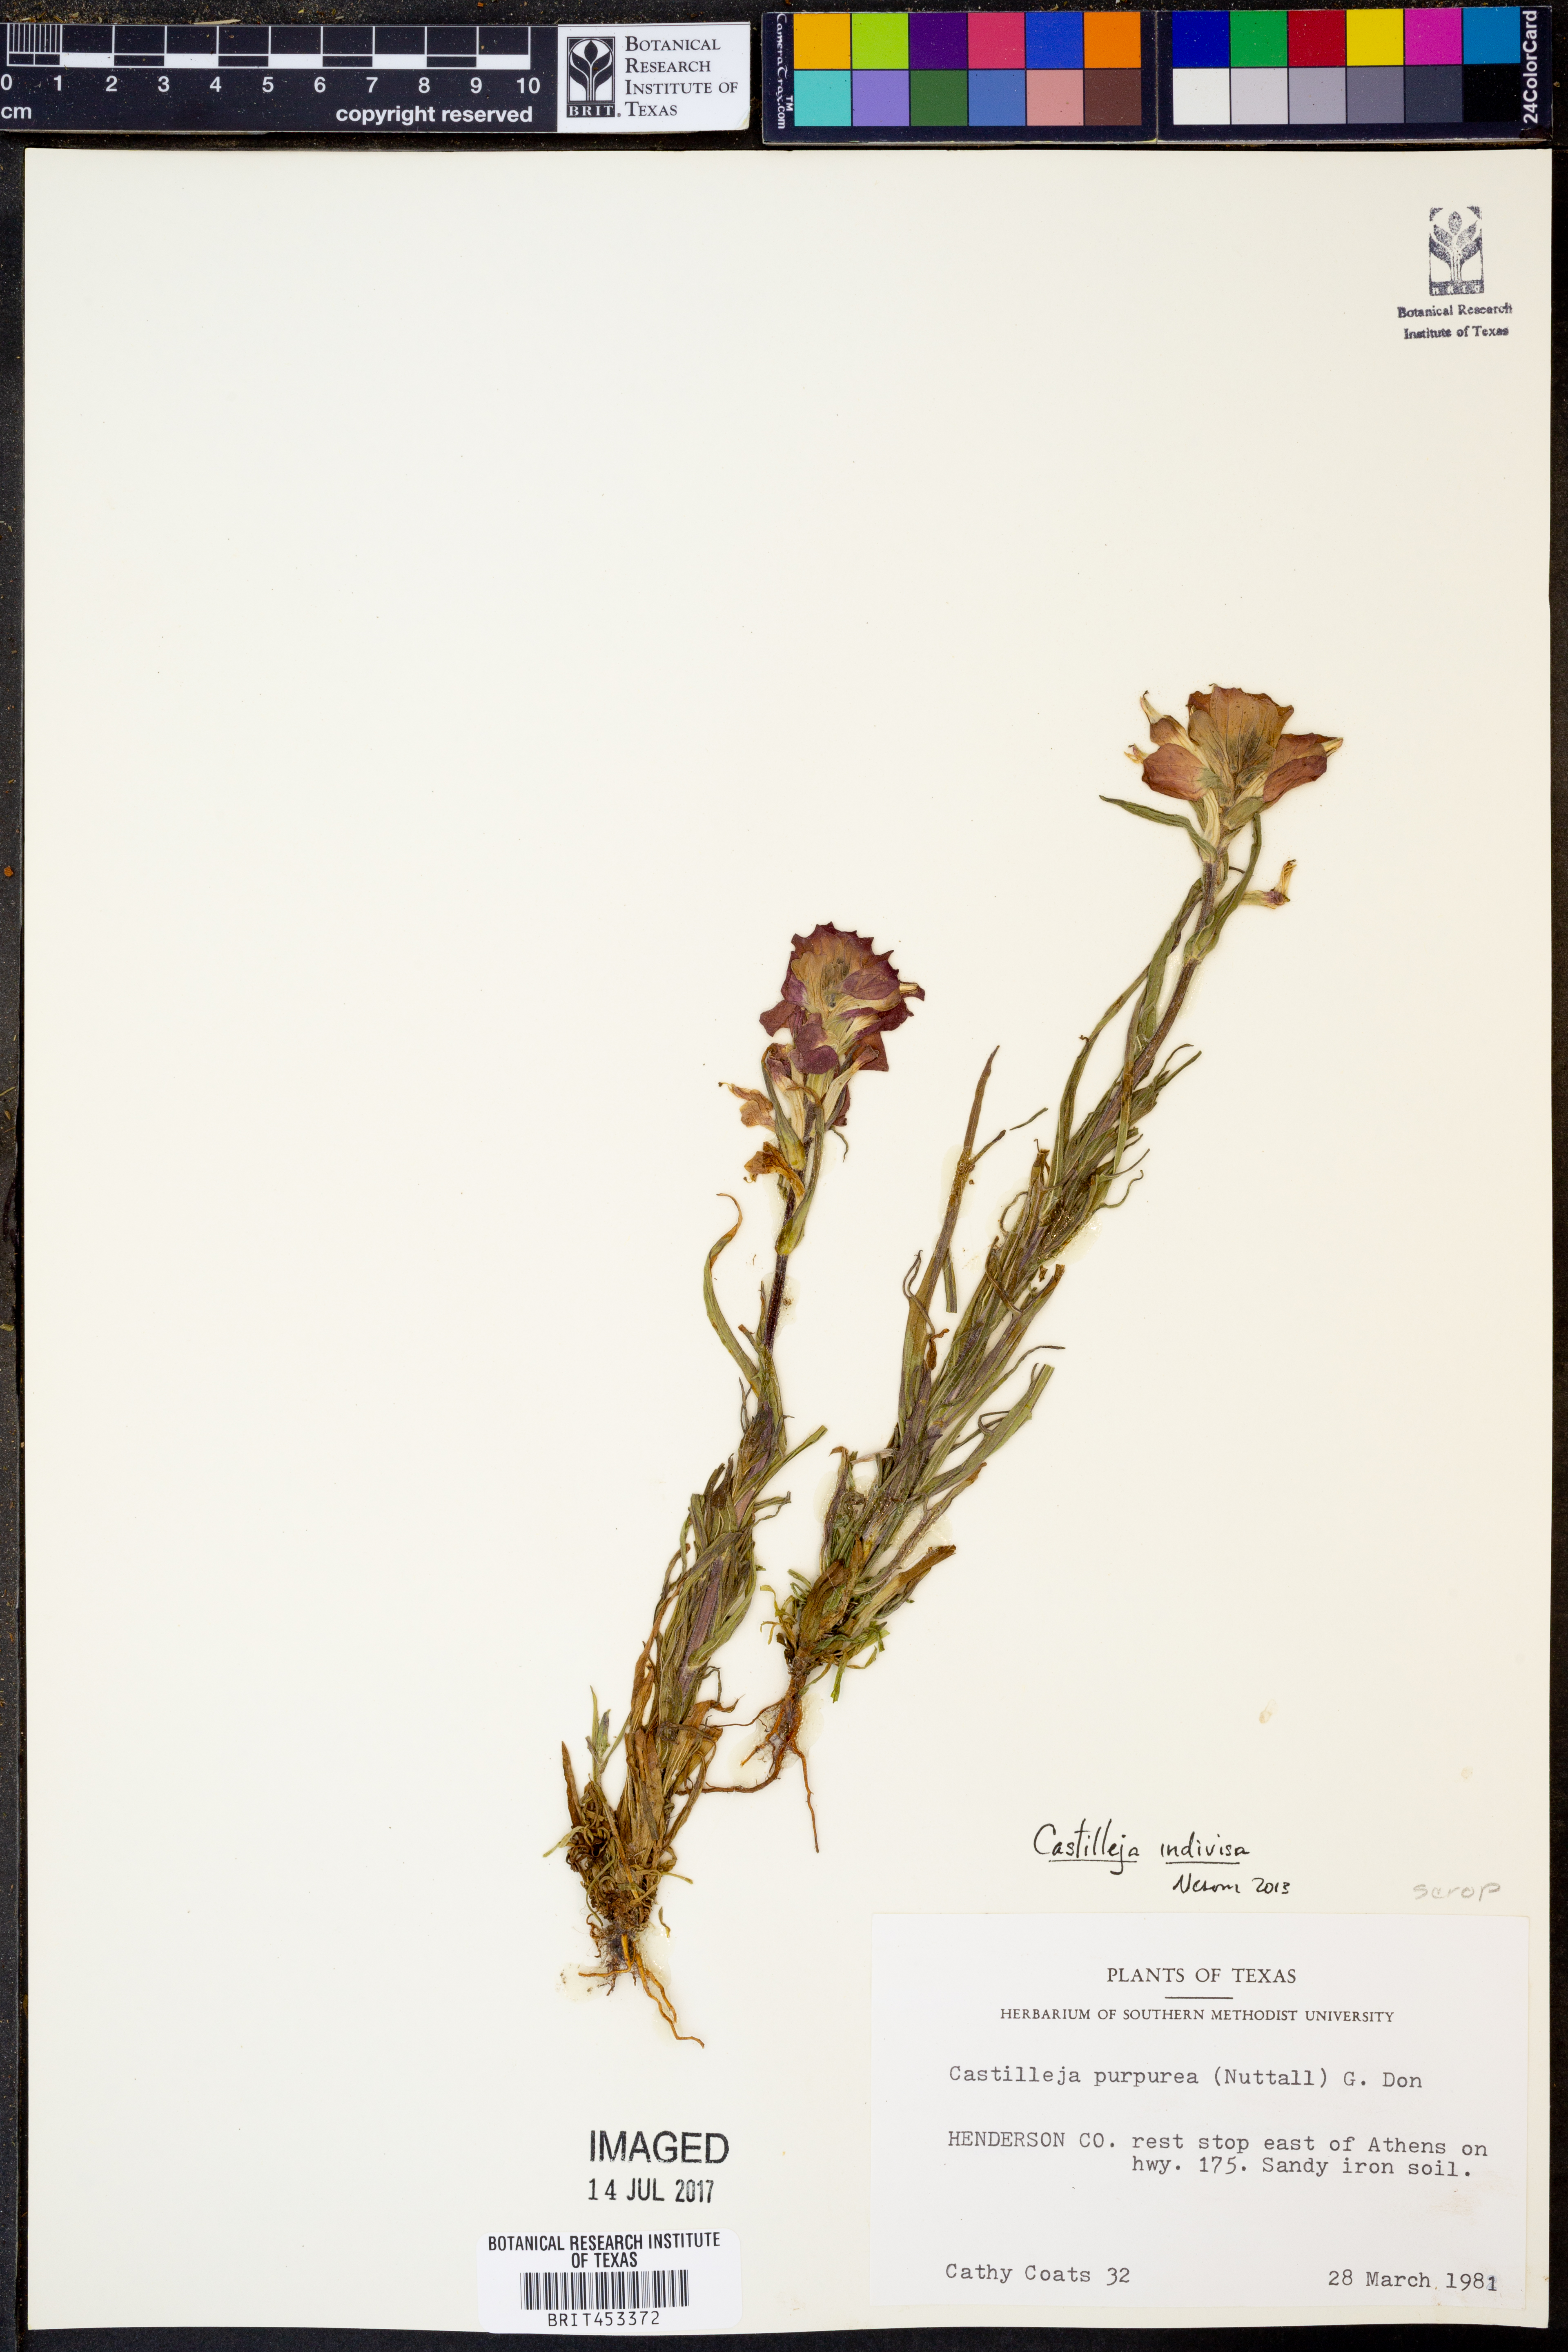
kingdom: Plantae
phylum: Tracheophyta
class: Magnoliopsida
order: Lamiales
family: Orobanchaceae
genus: Castilleja
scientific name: Castilleja indivisa
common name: Texas paintbrush
